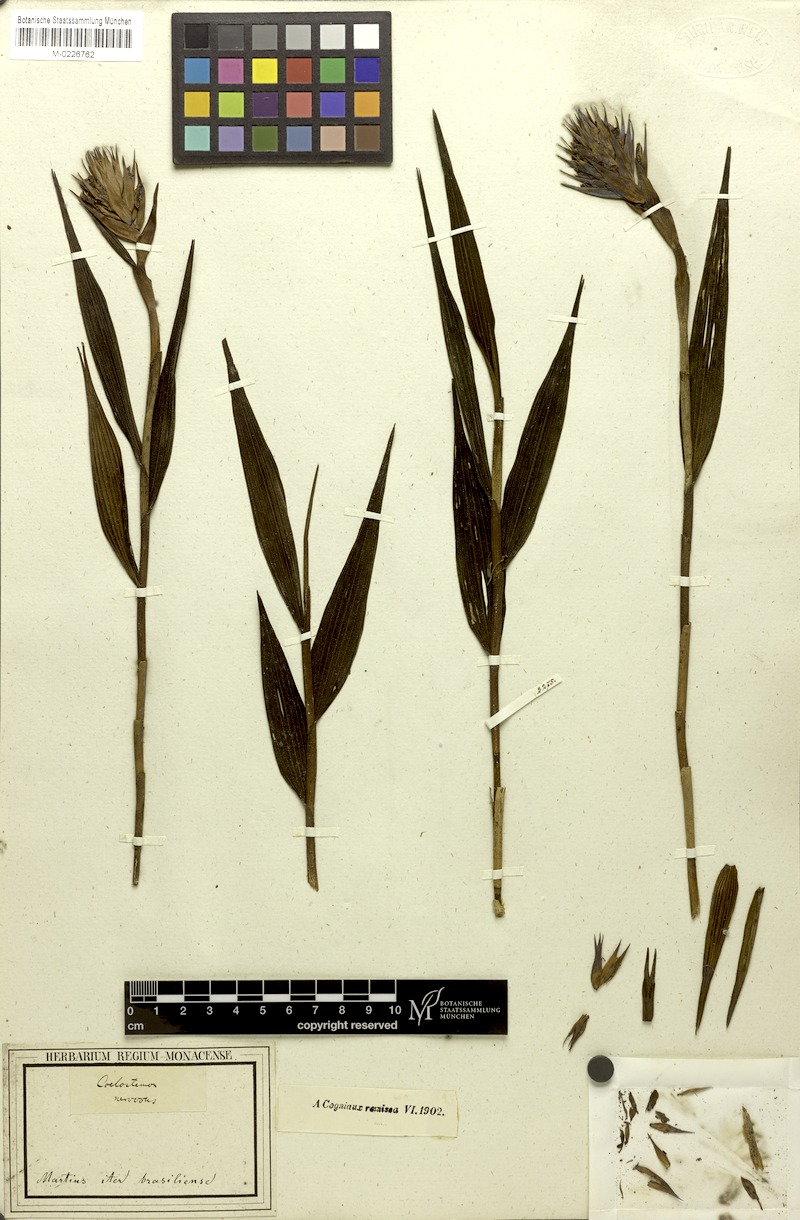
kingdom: Plantae
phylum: Tracheophyta
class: Liliopsida
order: Asparagales
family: Orchidaceae
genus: Elleanthus
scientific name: Elleanthus crinipes
